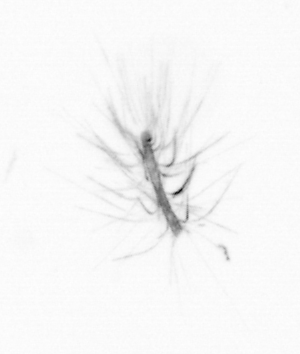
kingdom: Chromista
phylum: Ochrophyta
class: Bacillariophyceae
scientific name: Bacillariophyceae
